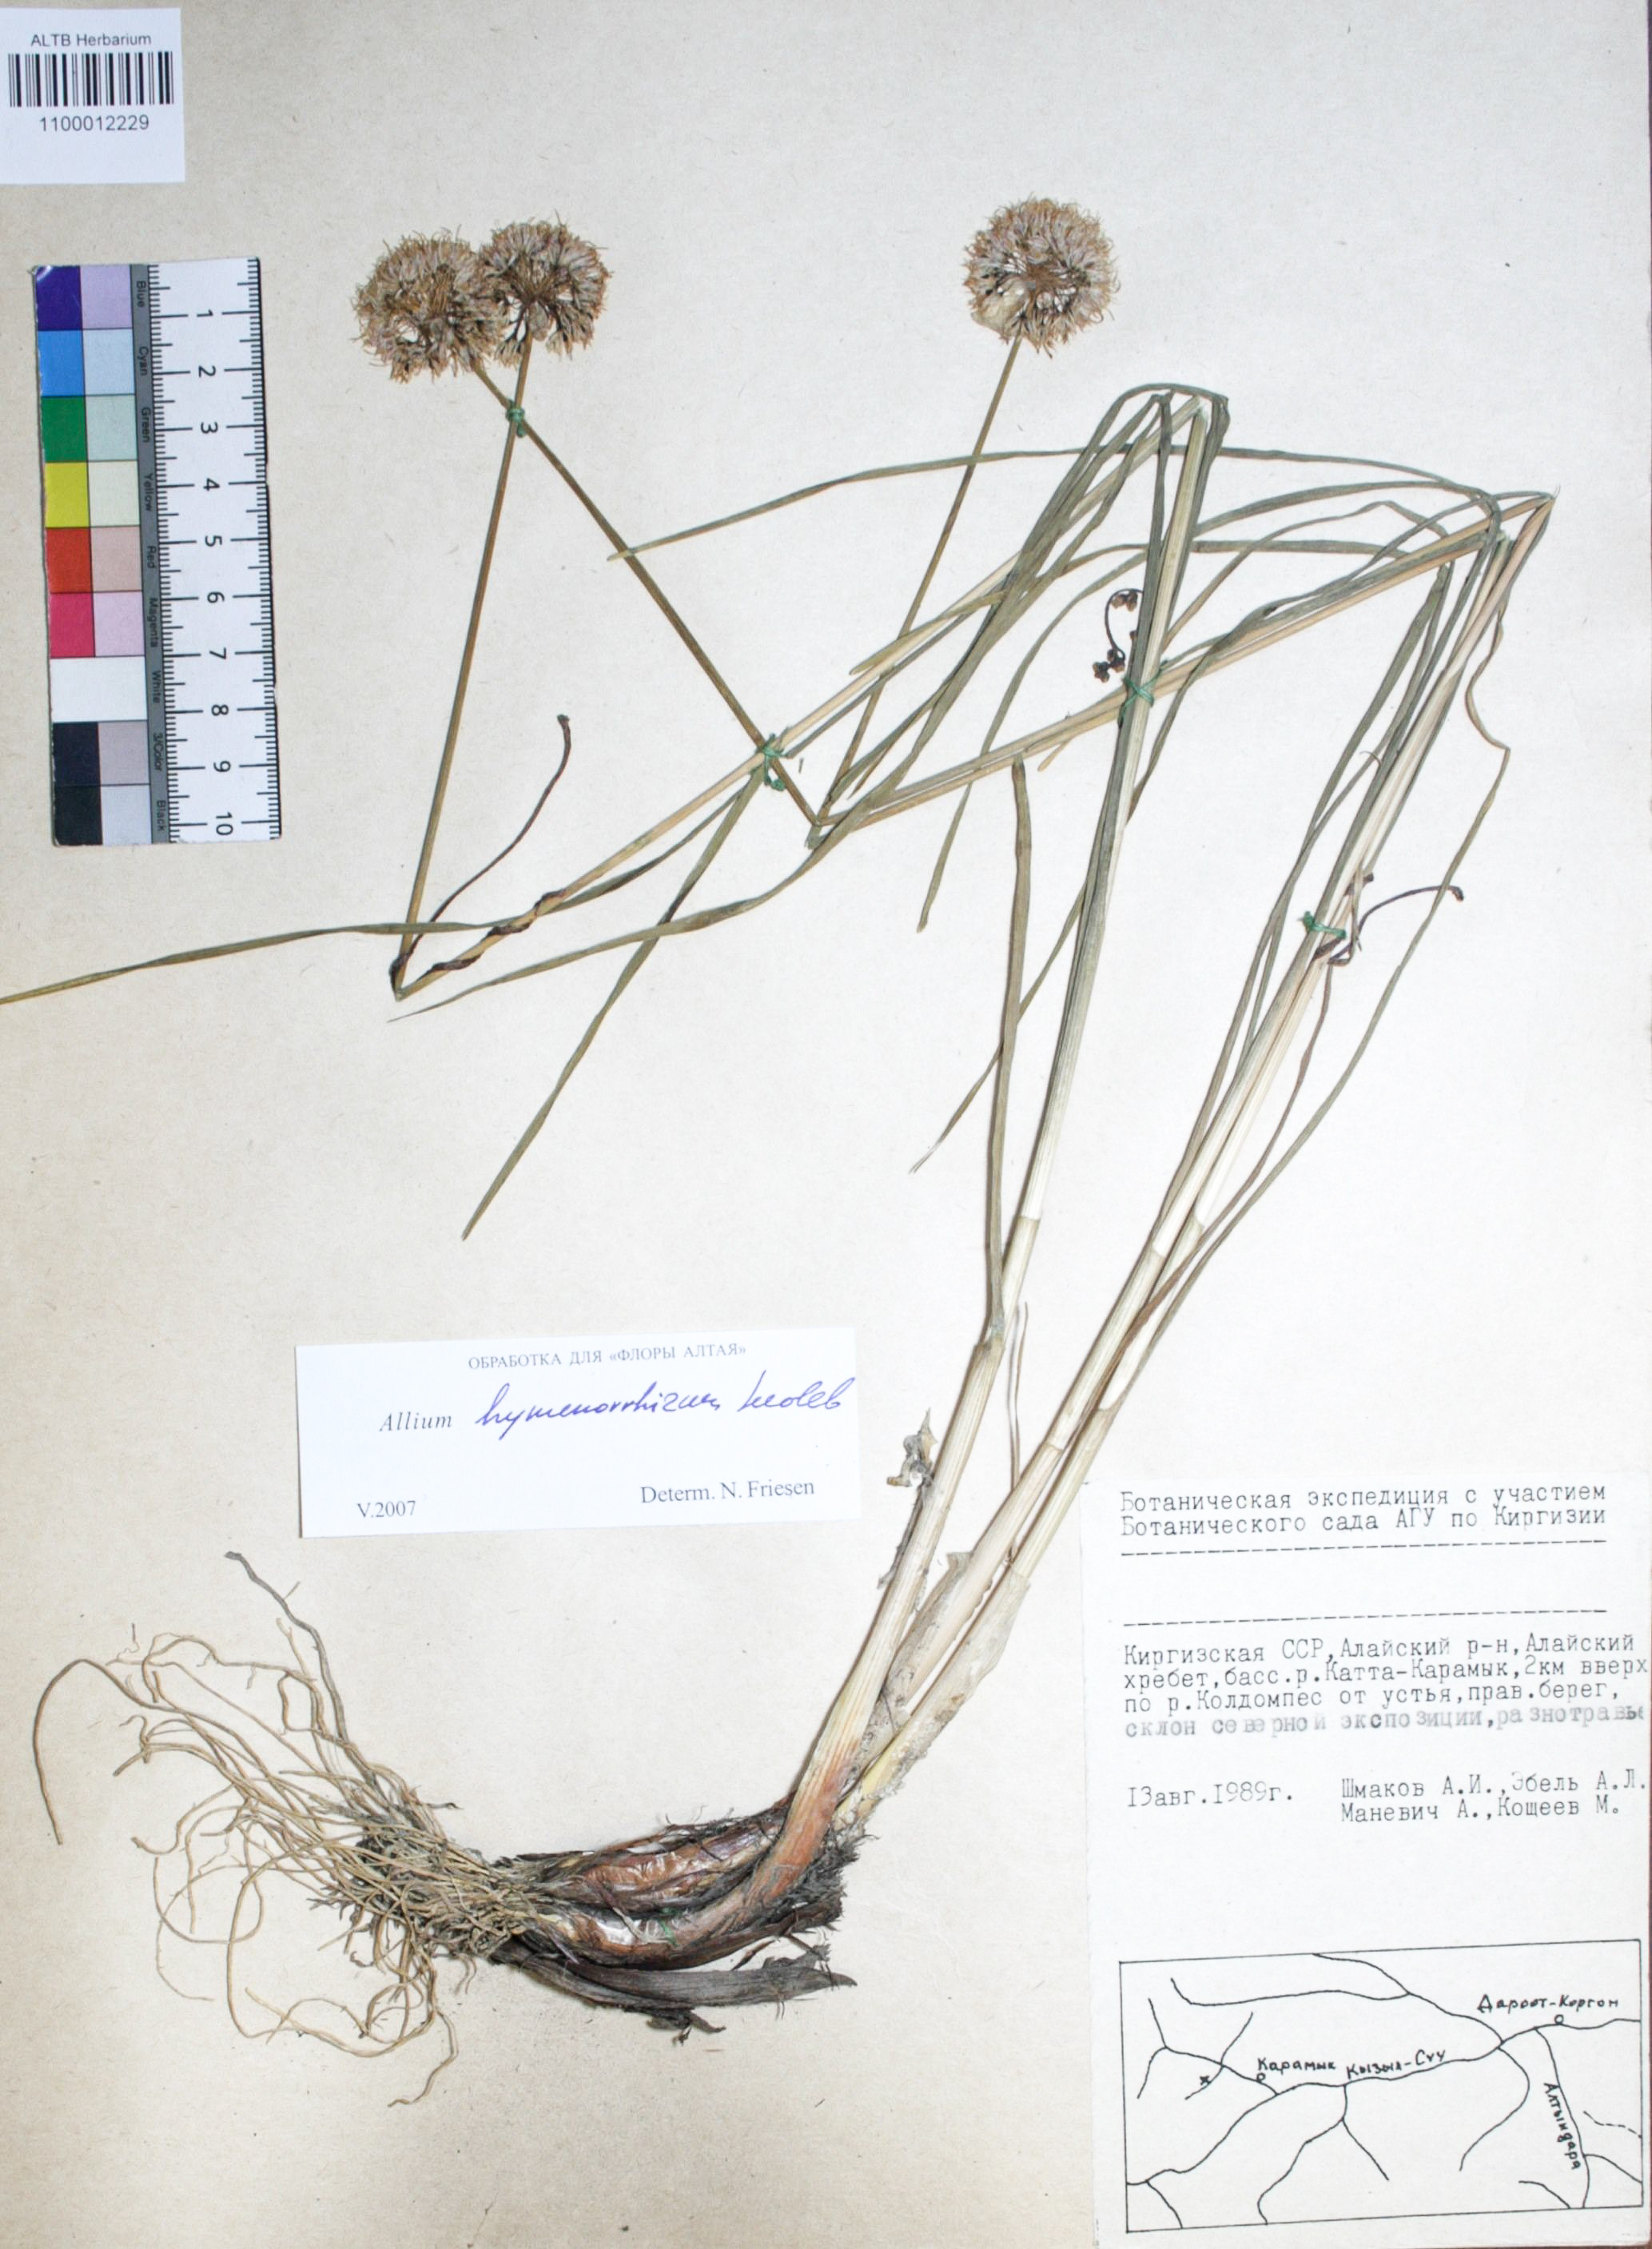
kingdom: Plantae
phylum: Tracheophyta
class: Liliopsida
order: Asparagales
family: Amaryllidaceae
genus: Allium
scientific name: Allium hymenorhizum
